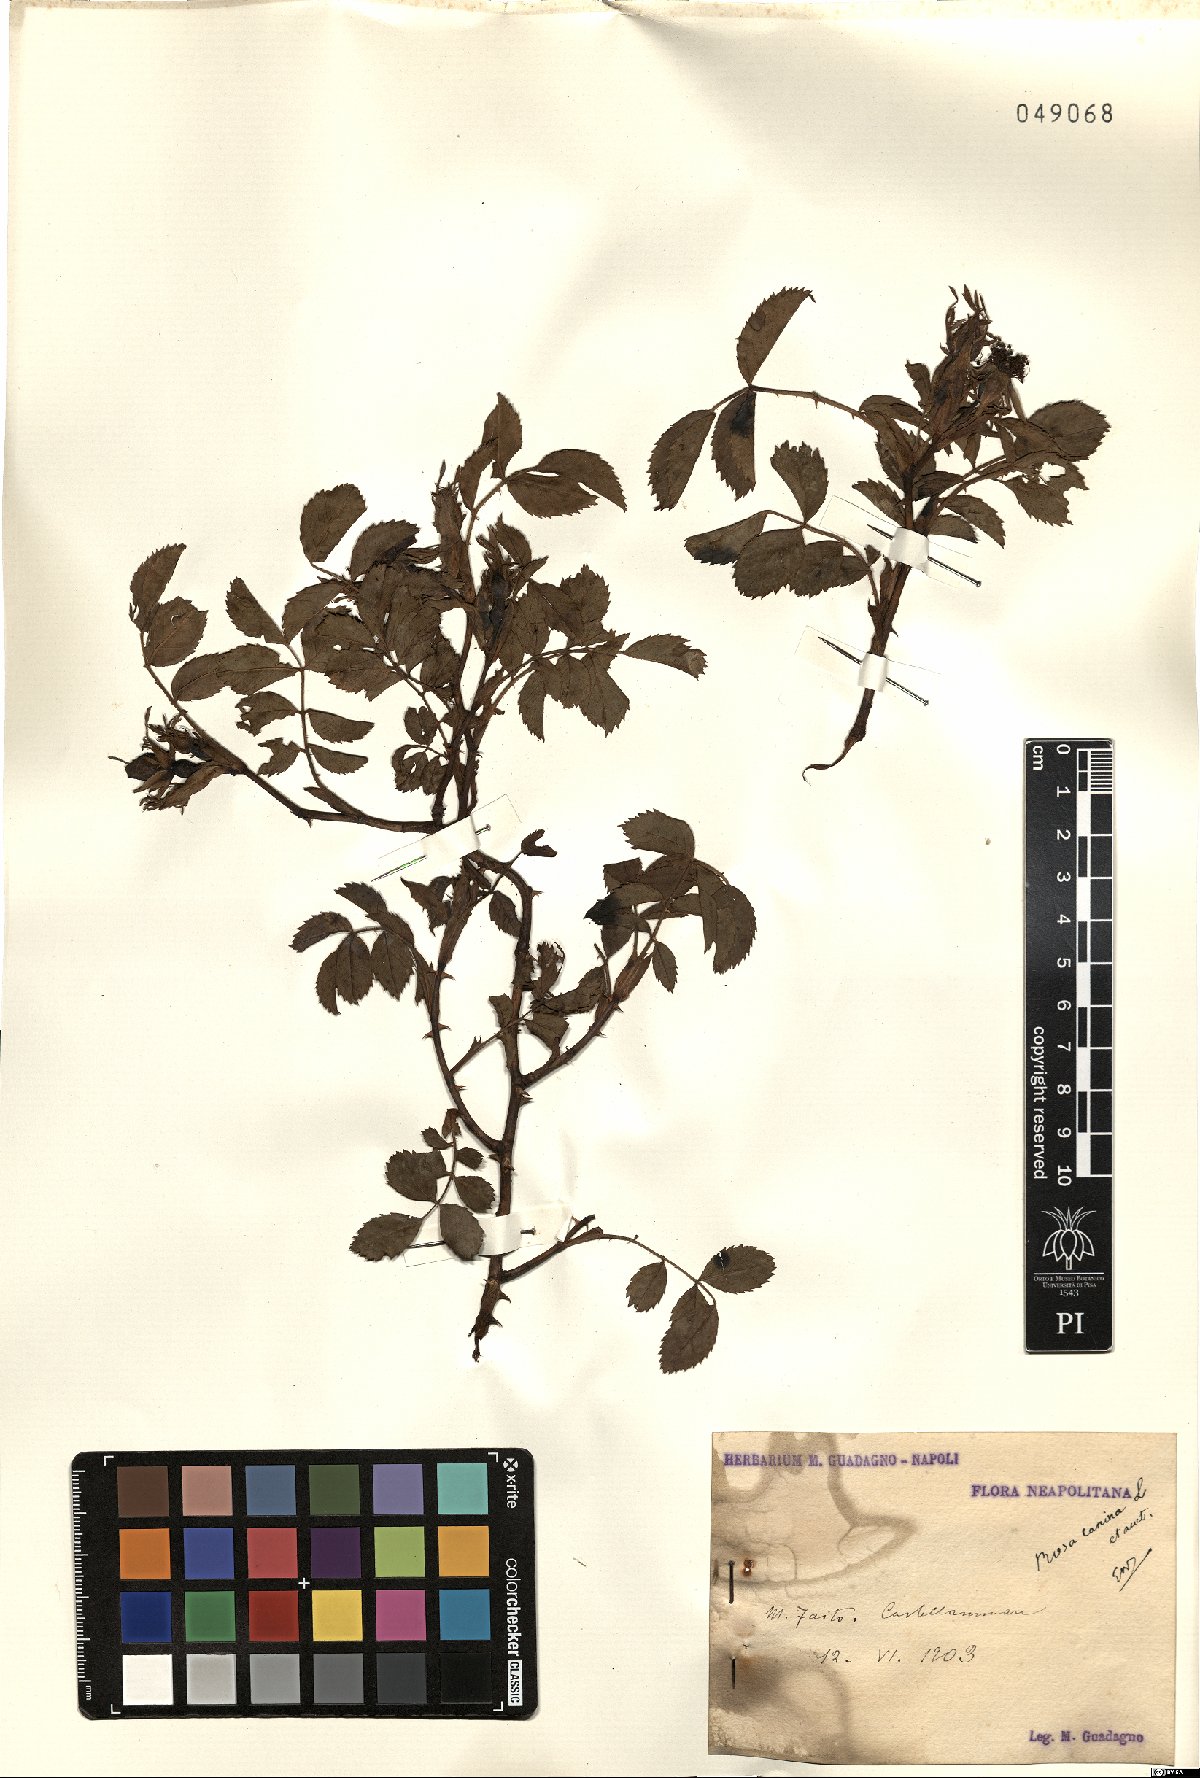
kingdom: Plantae
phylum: Tracheophyta
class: Magnoliopsida
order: Rosales
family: Rosaceae
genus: Rosa
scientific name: Rosa canina
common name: Dog rose
